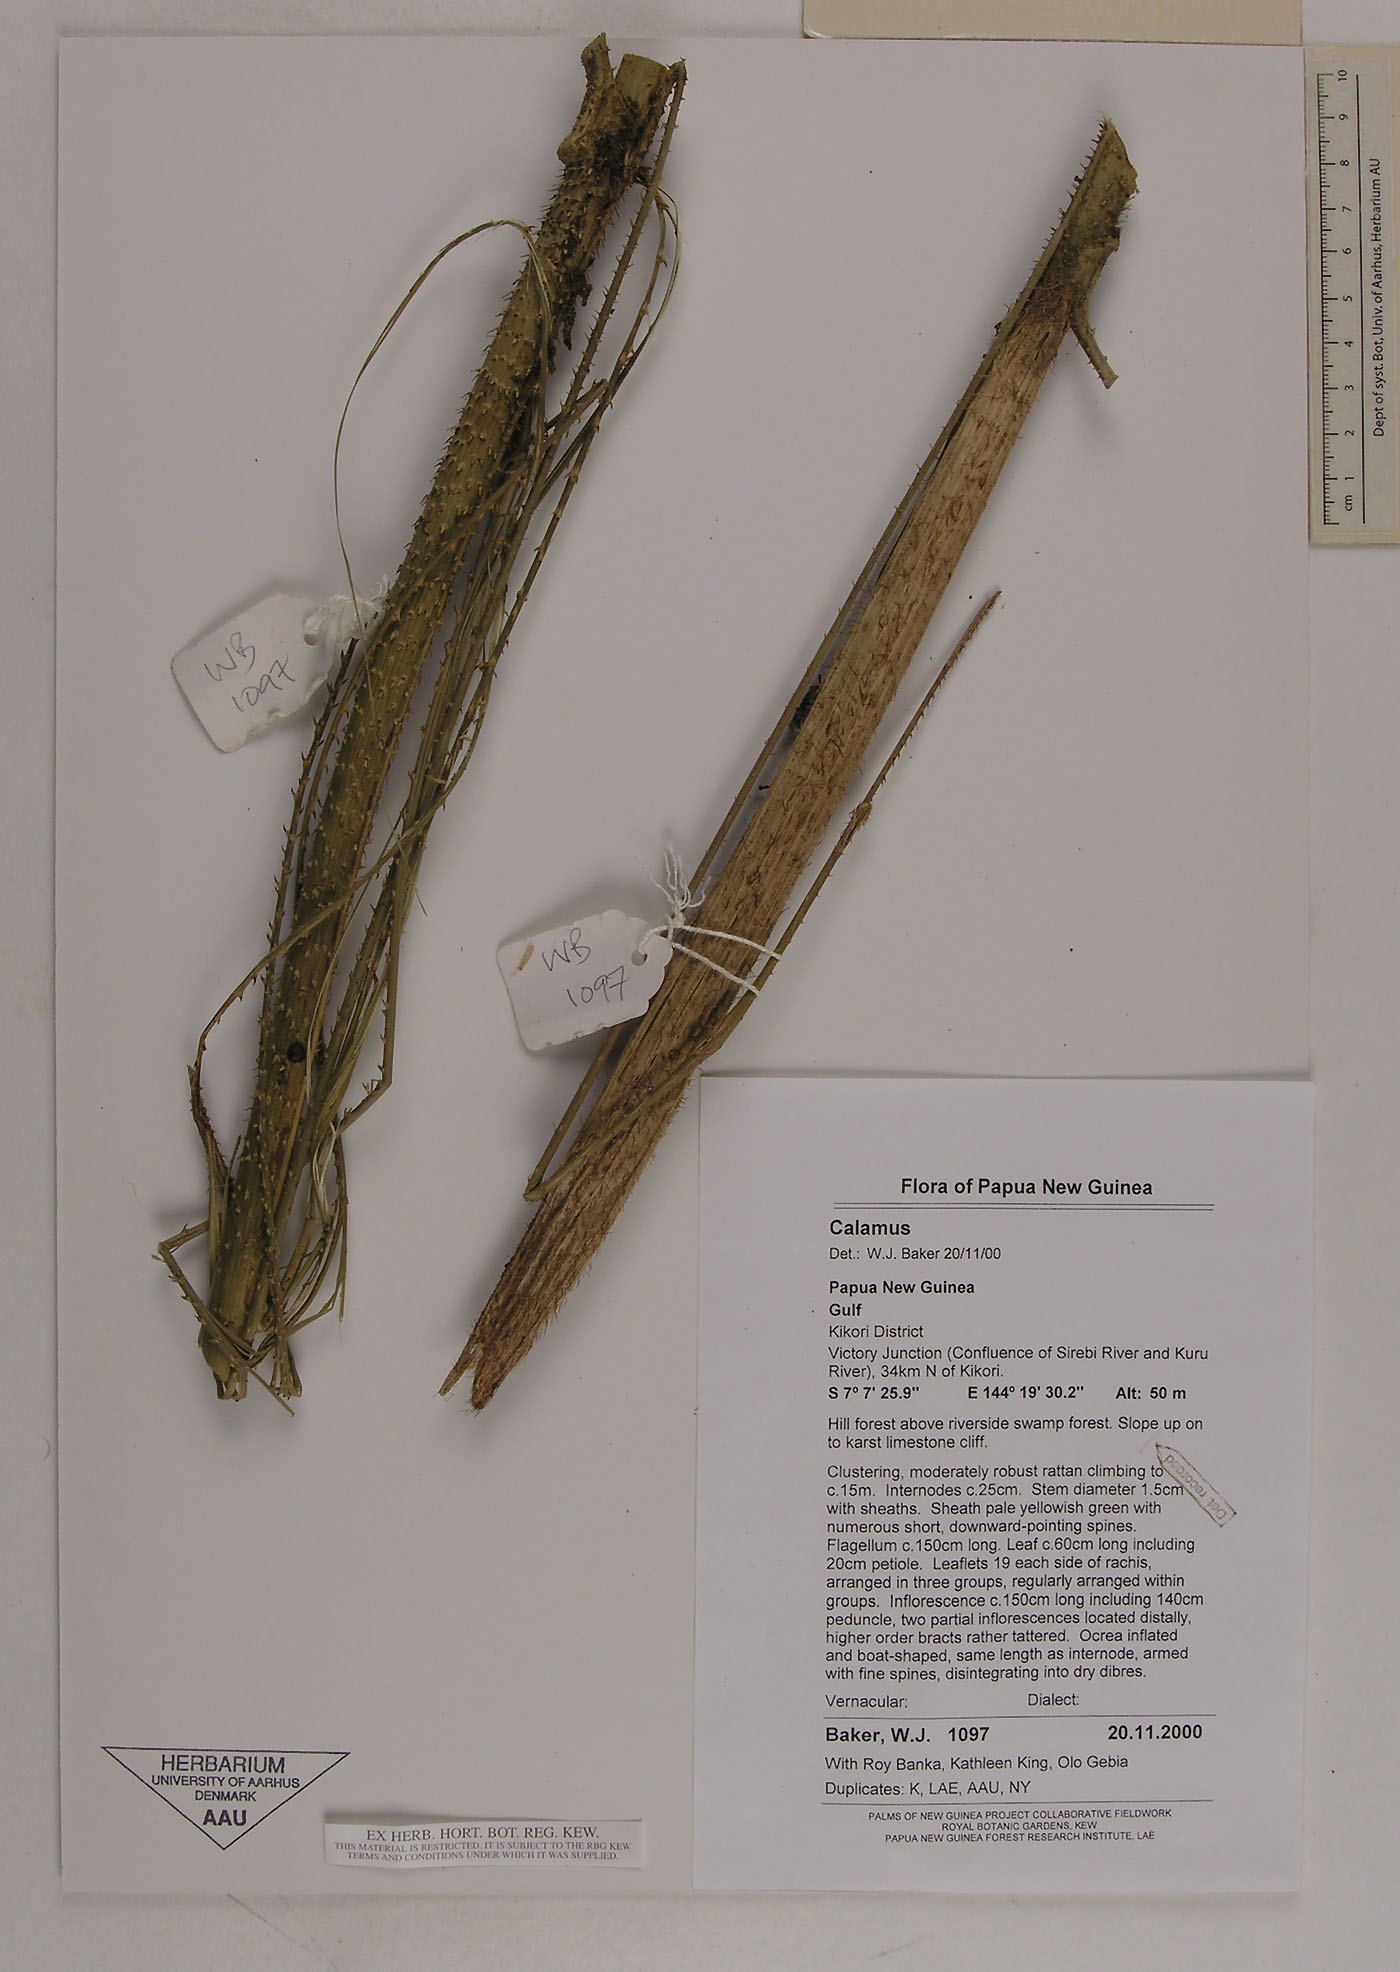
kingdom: Plantae
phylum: Tracheophyta
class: Liliopsida
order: Arecales
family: Arecaceae
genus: Calamus
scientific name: Calamus bankae
